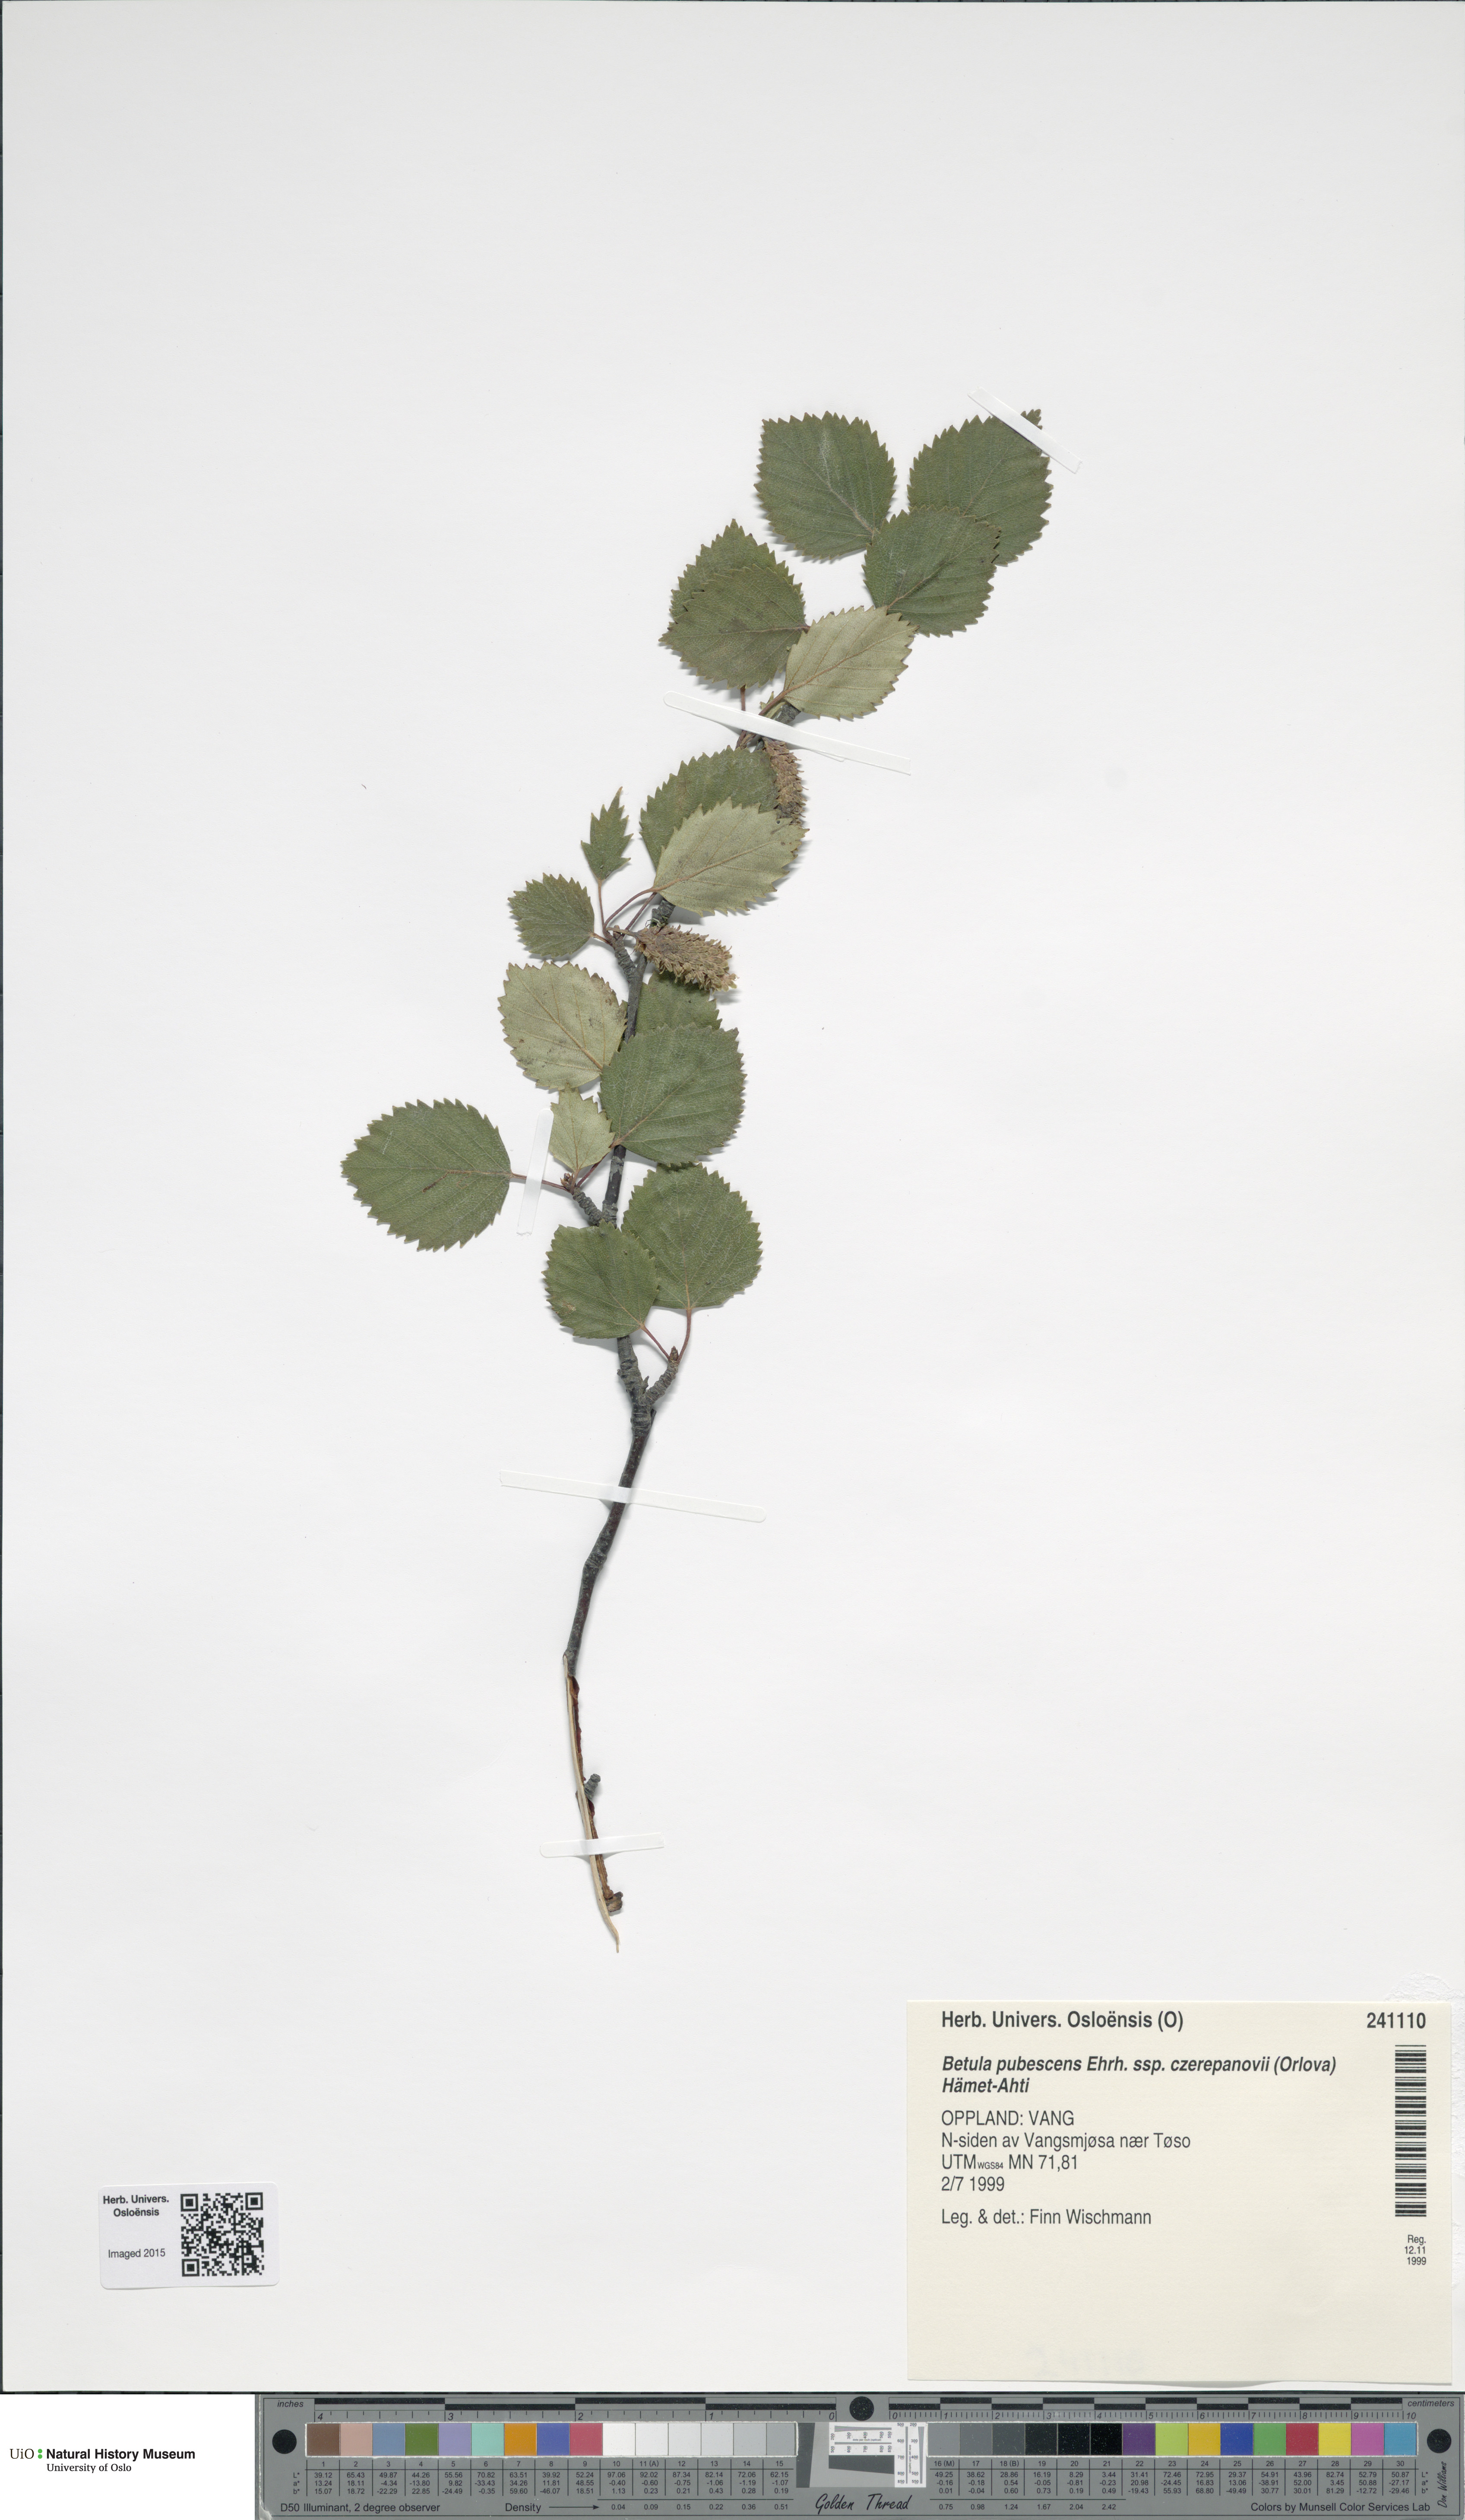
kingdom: Plantae
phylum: Tracheophyta
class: Magnoliopsida
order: Fagales
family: Betulaceae
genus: Betula
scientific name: Betula pubescens
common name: Downy birch
